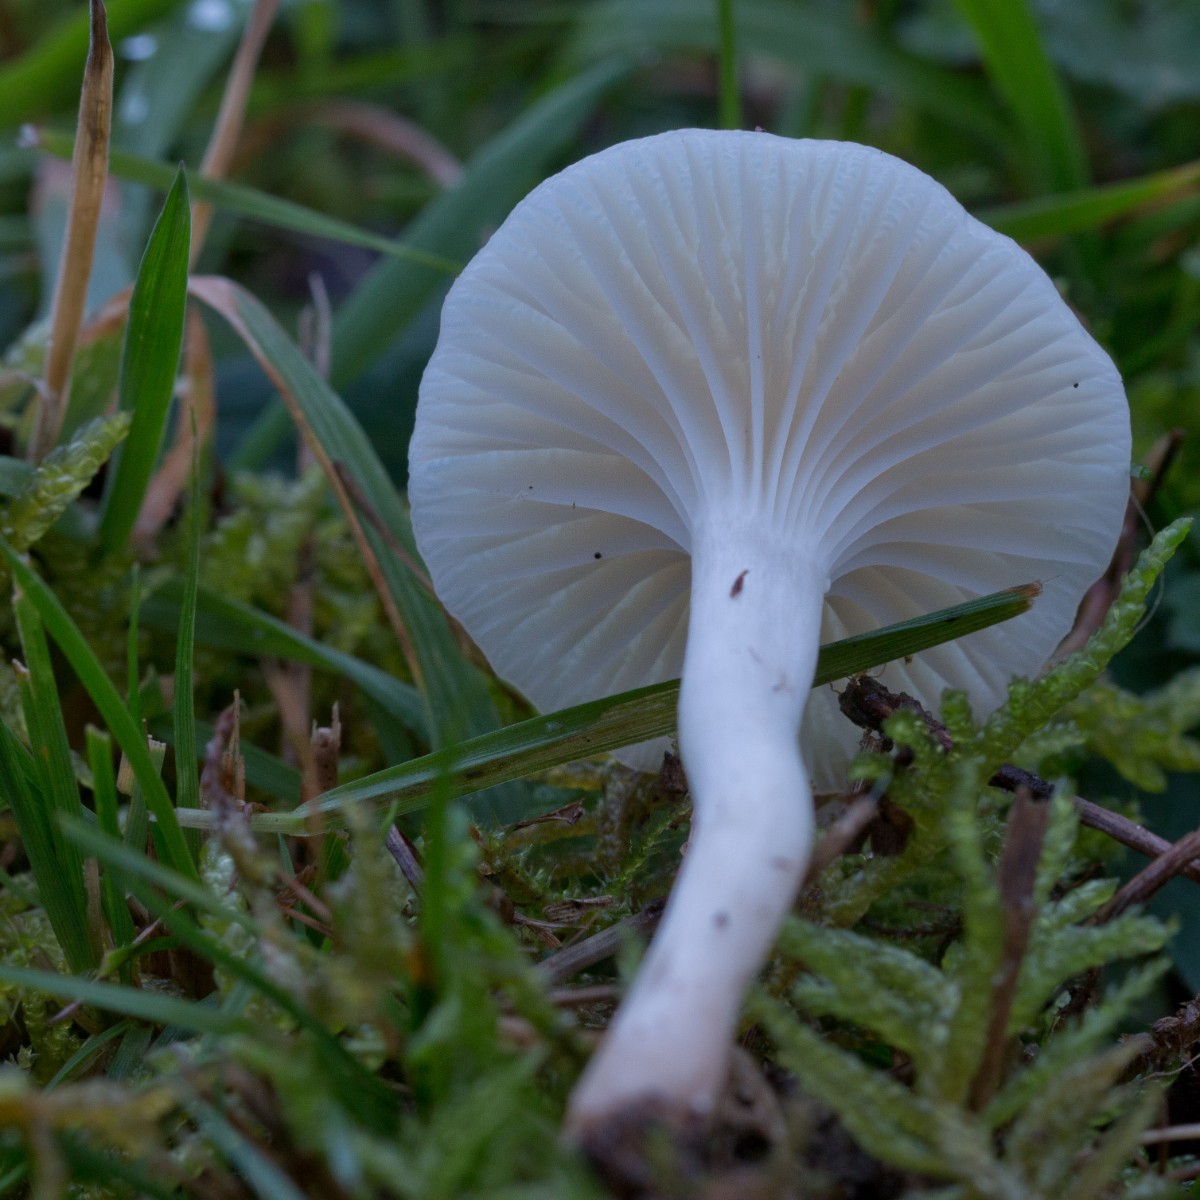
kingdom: Fungi
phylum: Basidiomycota
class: Agaricomycetes
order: Agaricales
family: Hygrophoraceae
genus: Cuphophyllus
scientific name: Cuphophyllus virgineus
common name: snehvid vokshat
